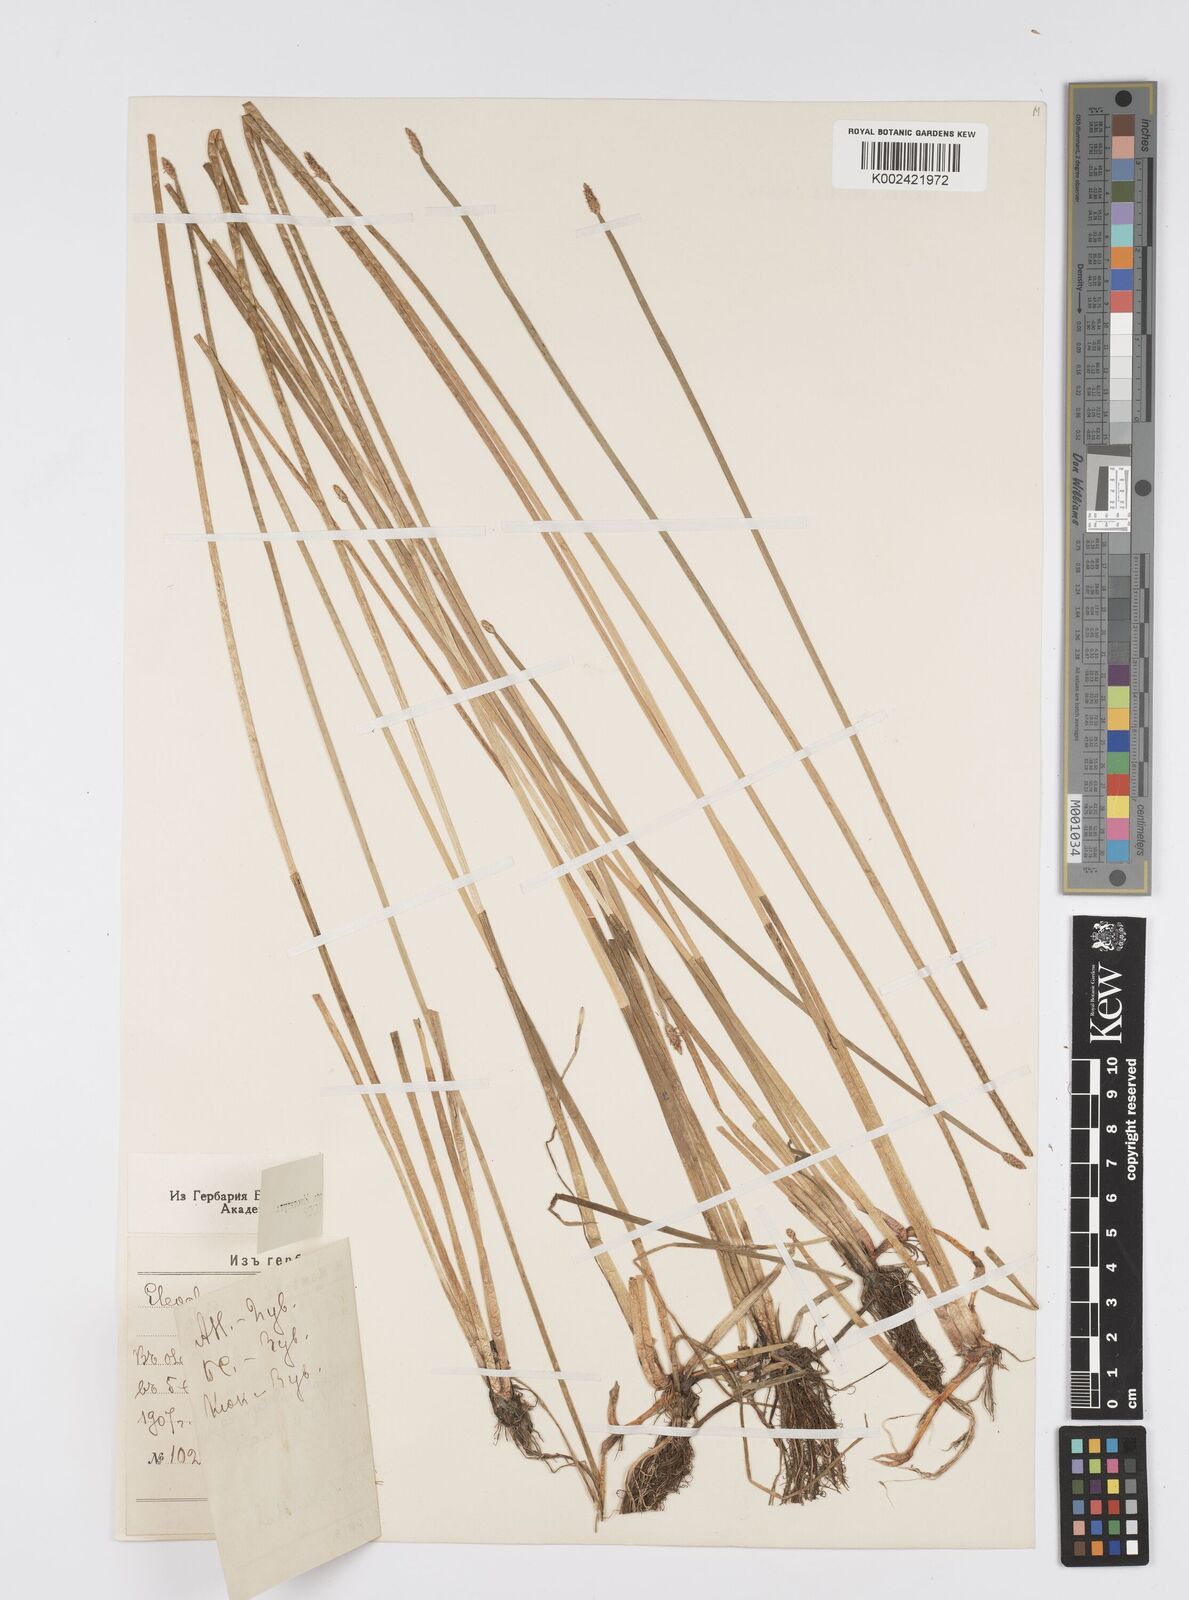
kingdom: Plantae
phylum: Tracheophyta
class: Liliopsida
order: Poales
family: Cyperaceae
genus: Eleocharis
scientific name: Eleocharis palustris
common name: Common spike-rush
